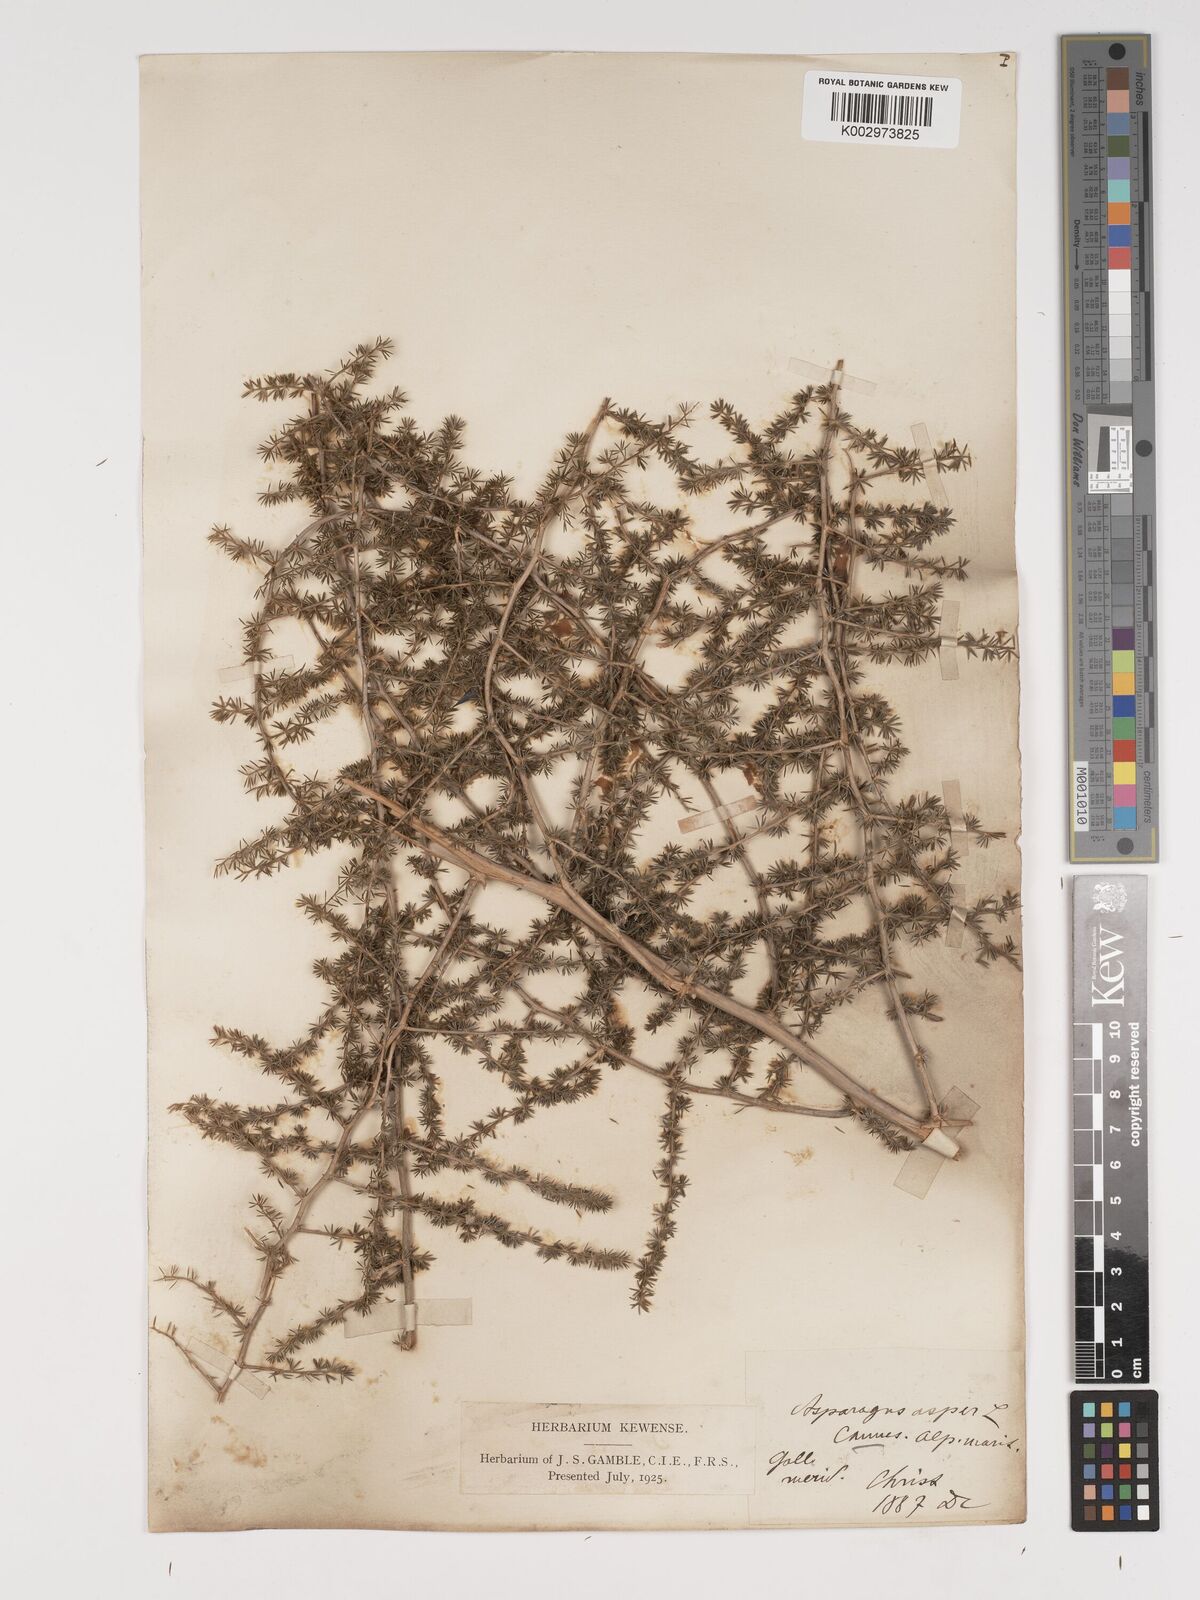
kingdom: Plantae
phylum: Tracheophyta
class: Liliopsida
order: Asparagales
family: Asparagaceae
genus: Asparagus
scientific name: Asparagus aethiopicus
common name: Sprenger's asparagus fern
